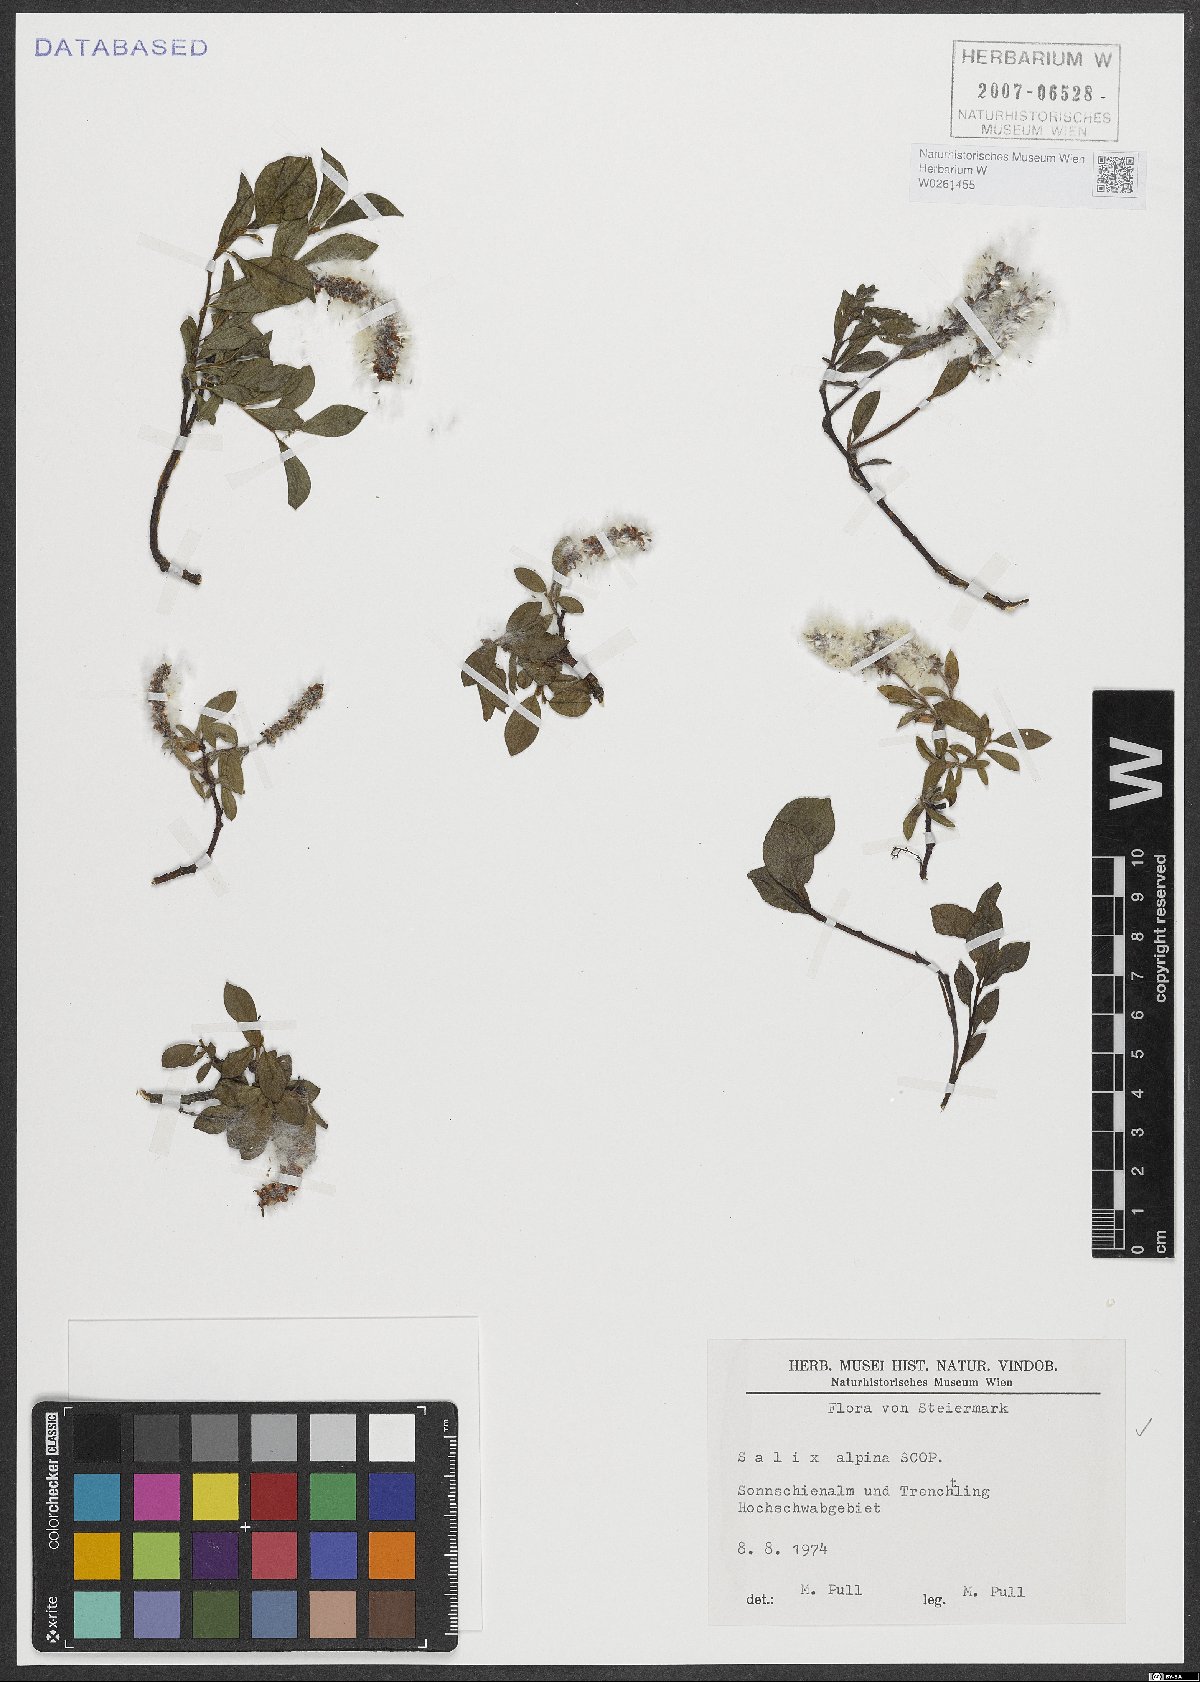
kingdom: Plantae
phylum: Tracheophyta
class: Magnoliopsida
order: Malpighiales
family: Salicaceae
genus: Salix
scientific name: Salix alpina
